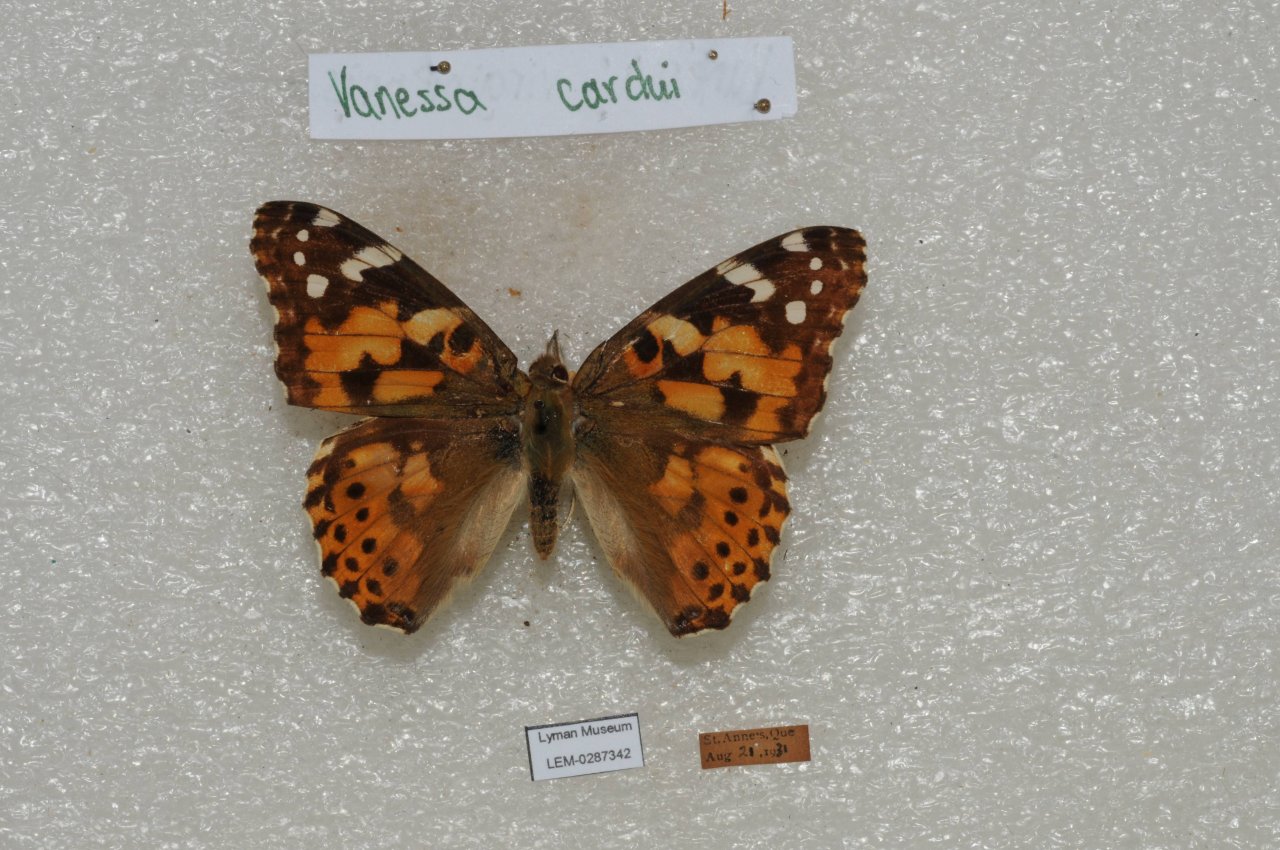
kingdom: Animalia
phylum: Arthropoda
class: Insecta
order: Lepidoptera
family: Nymphalidae
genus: Vanessa
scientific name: Vanessa cardui
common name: Painted Lady
